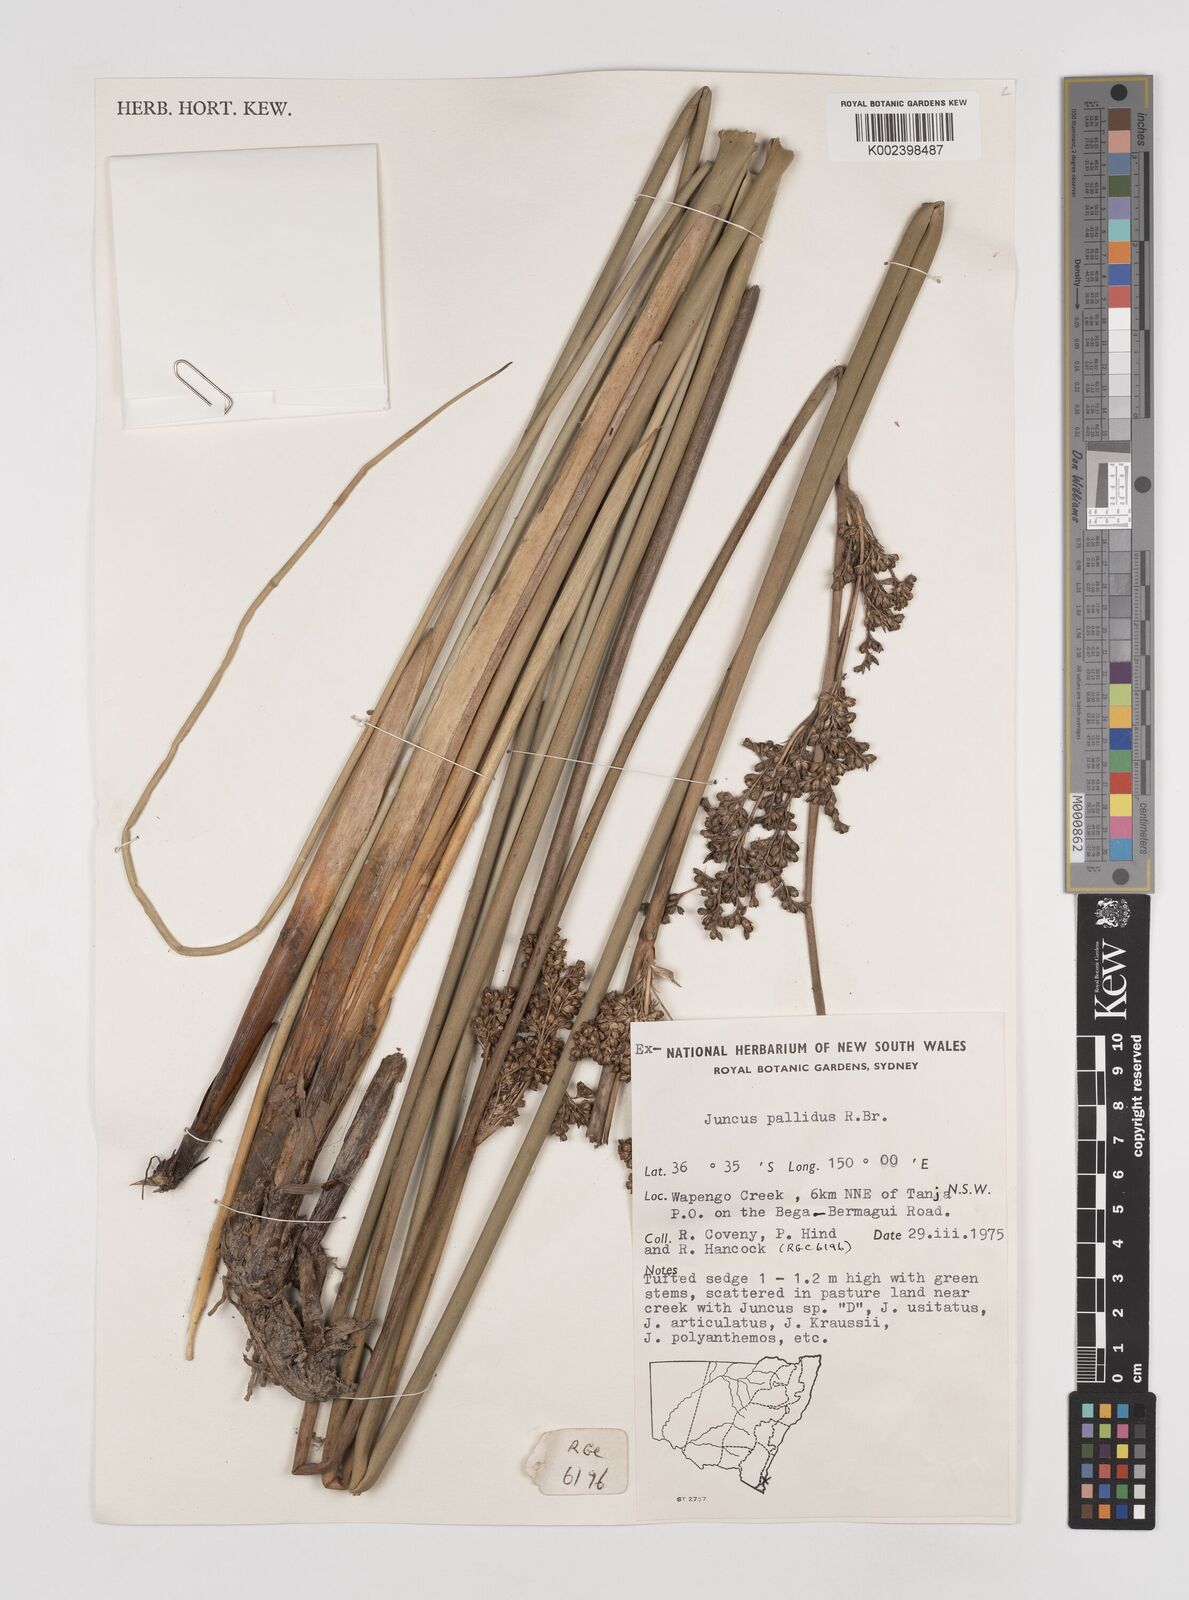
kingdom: Plantae
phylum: Tracheophyta
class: Liliopsida
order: Poales
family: Juncaceae
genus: Juncus
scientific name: Juncus pallidus
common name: Great soft-rush
